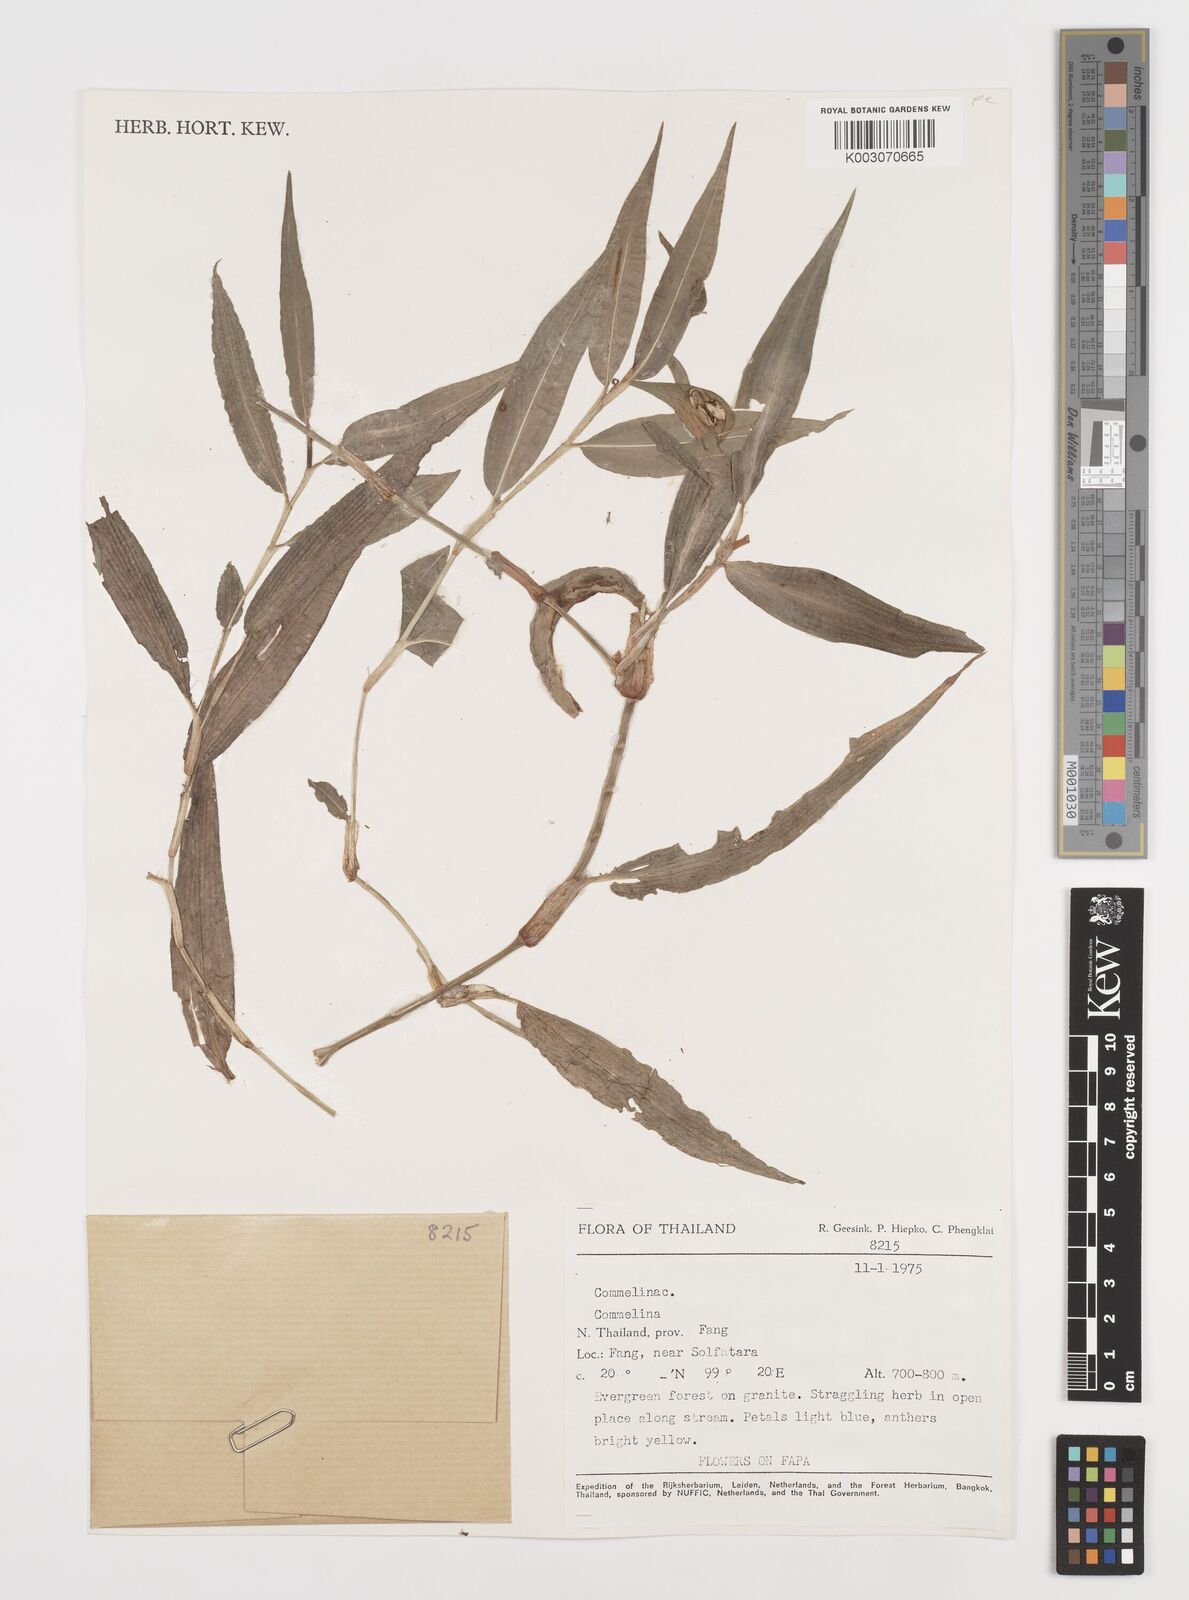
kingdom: Plantae
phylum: Tracheophyta
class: Liliopsida
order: Commelinales
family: Commelinaceae
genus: Commelina
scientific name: Commelina
